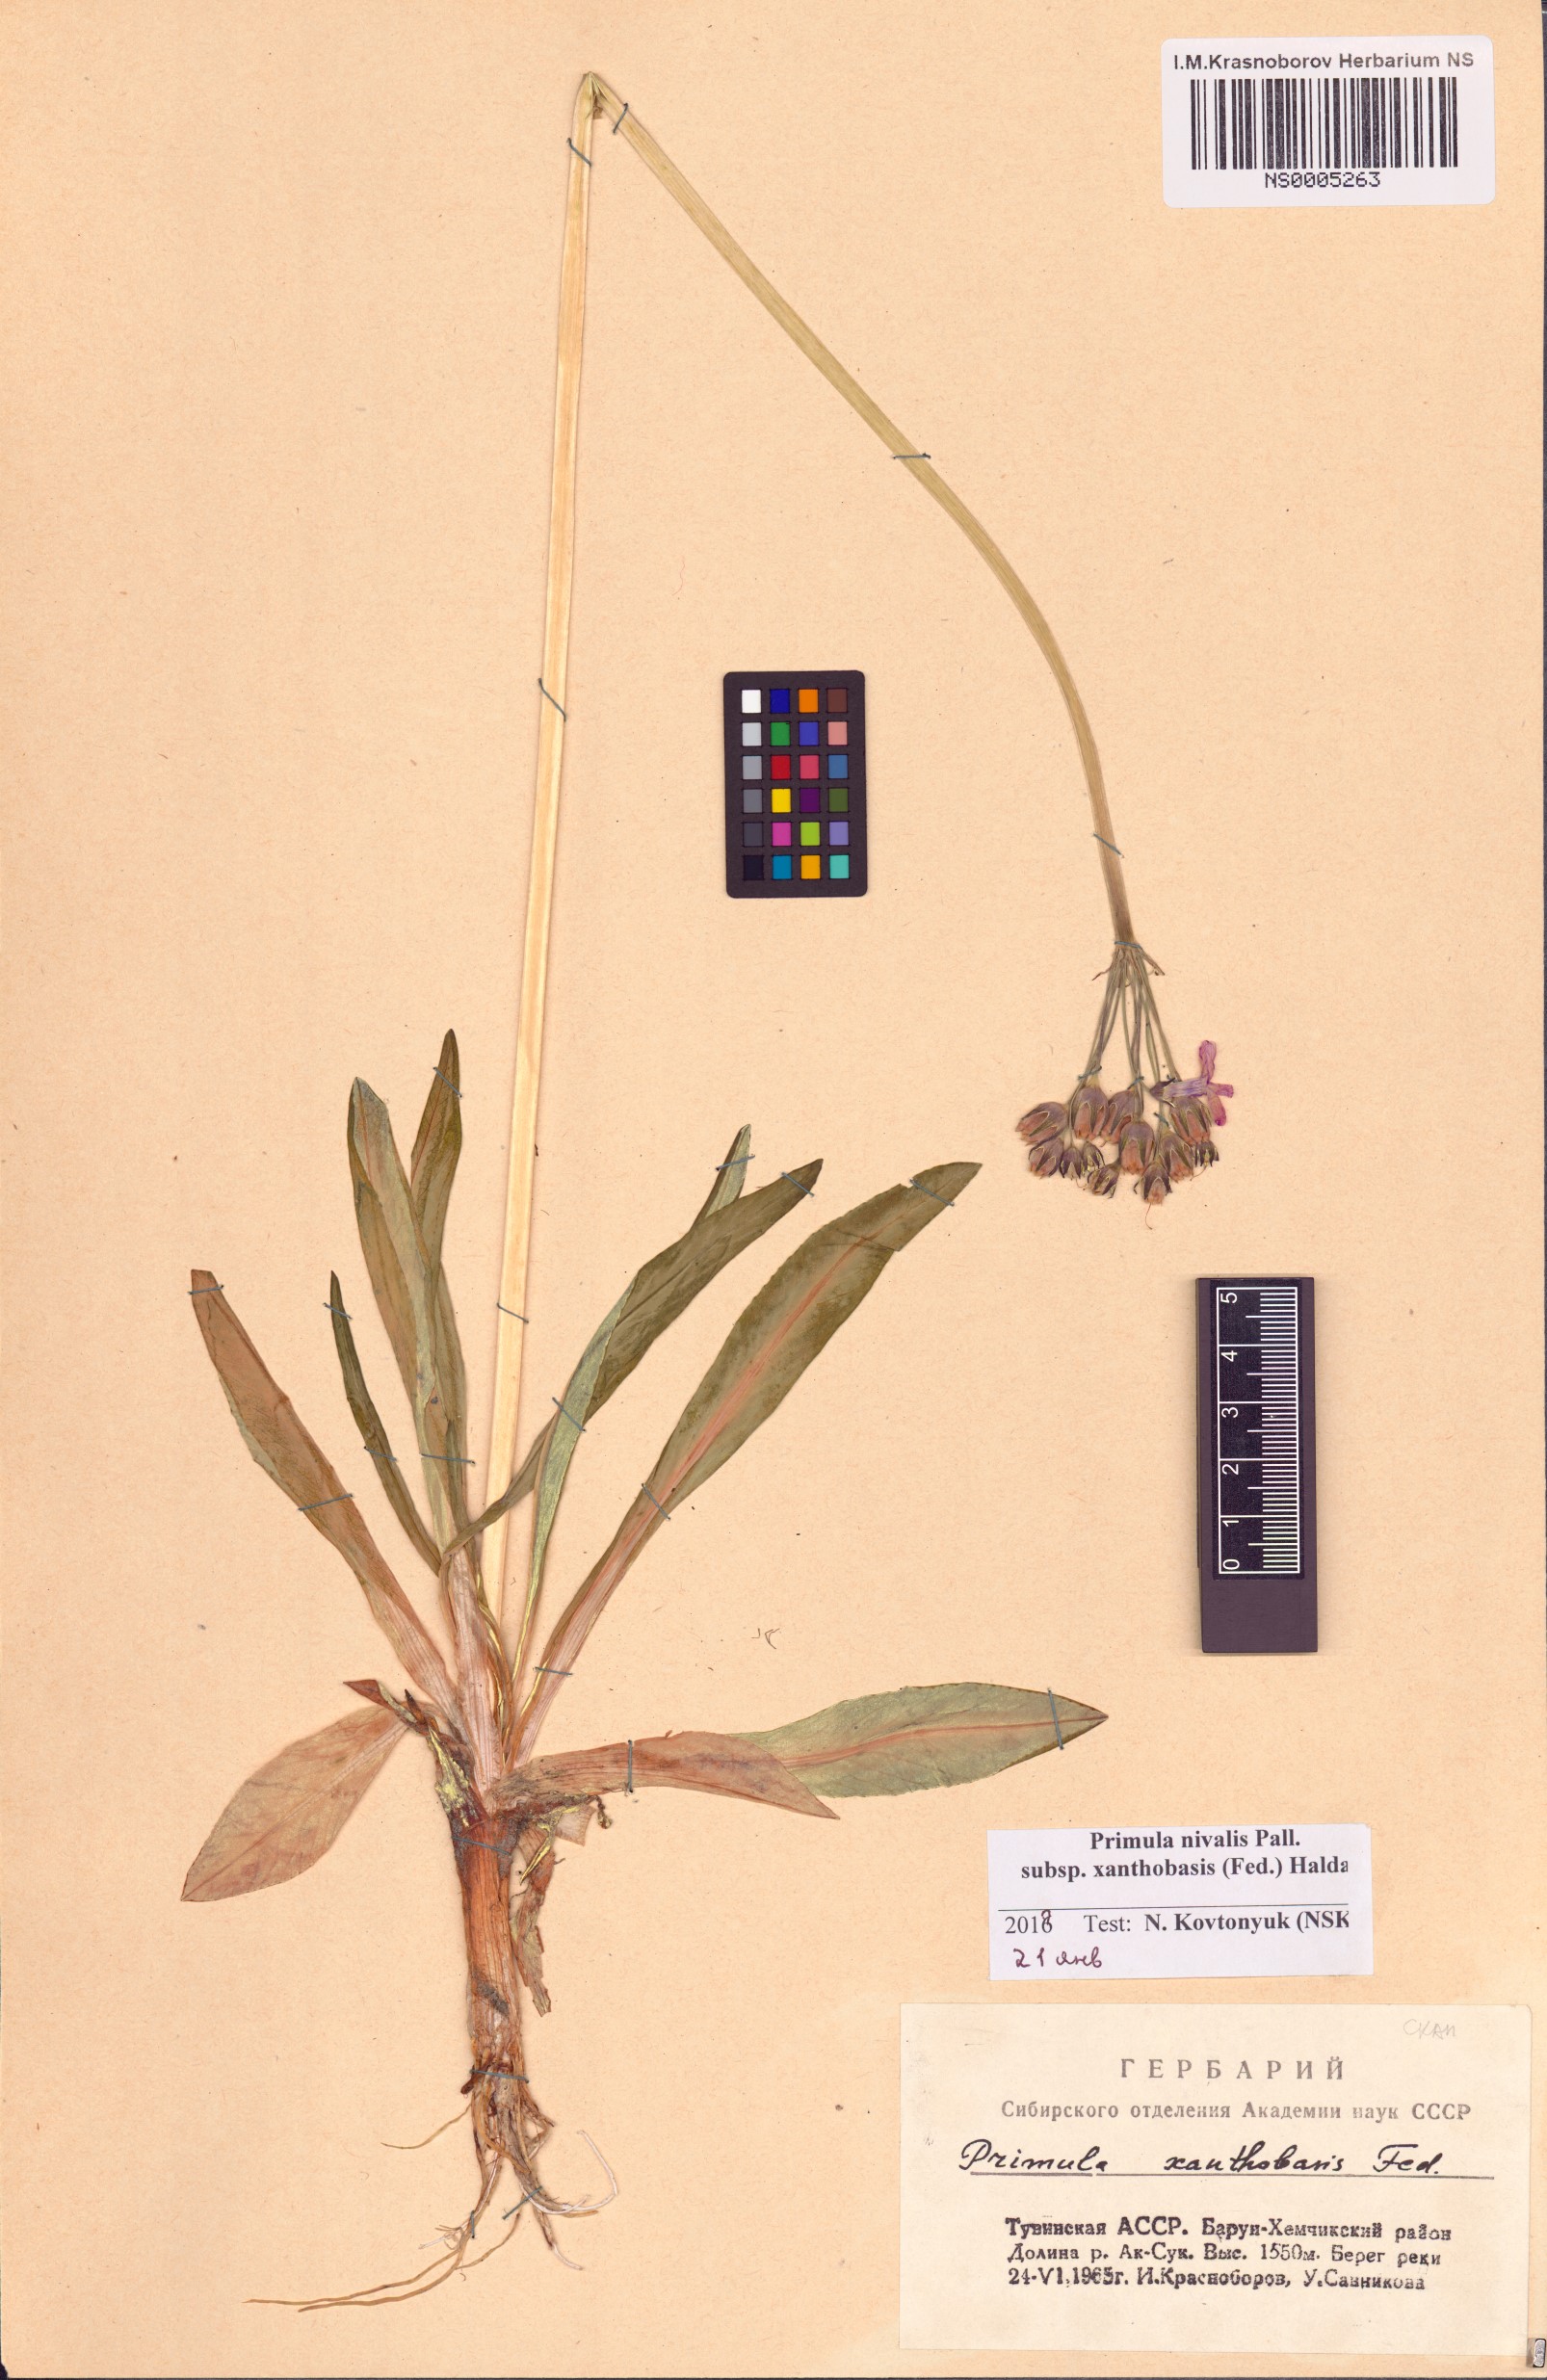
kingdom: Plantae
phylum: Tracheophyta
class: Magnoliopsida
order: Ericales
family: Primulaceae
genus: Primula
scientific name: Primula nivalis
